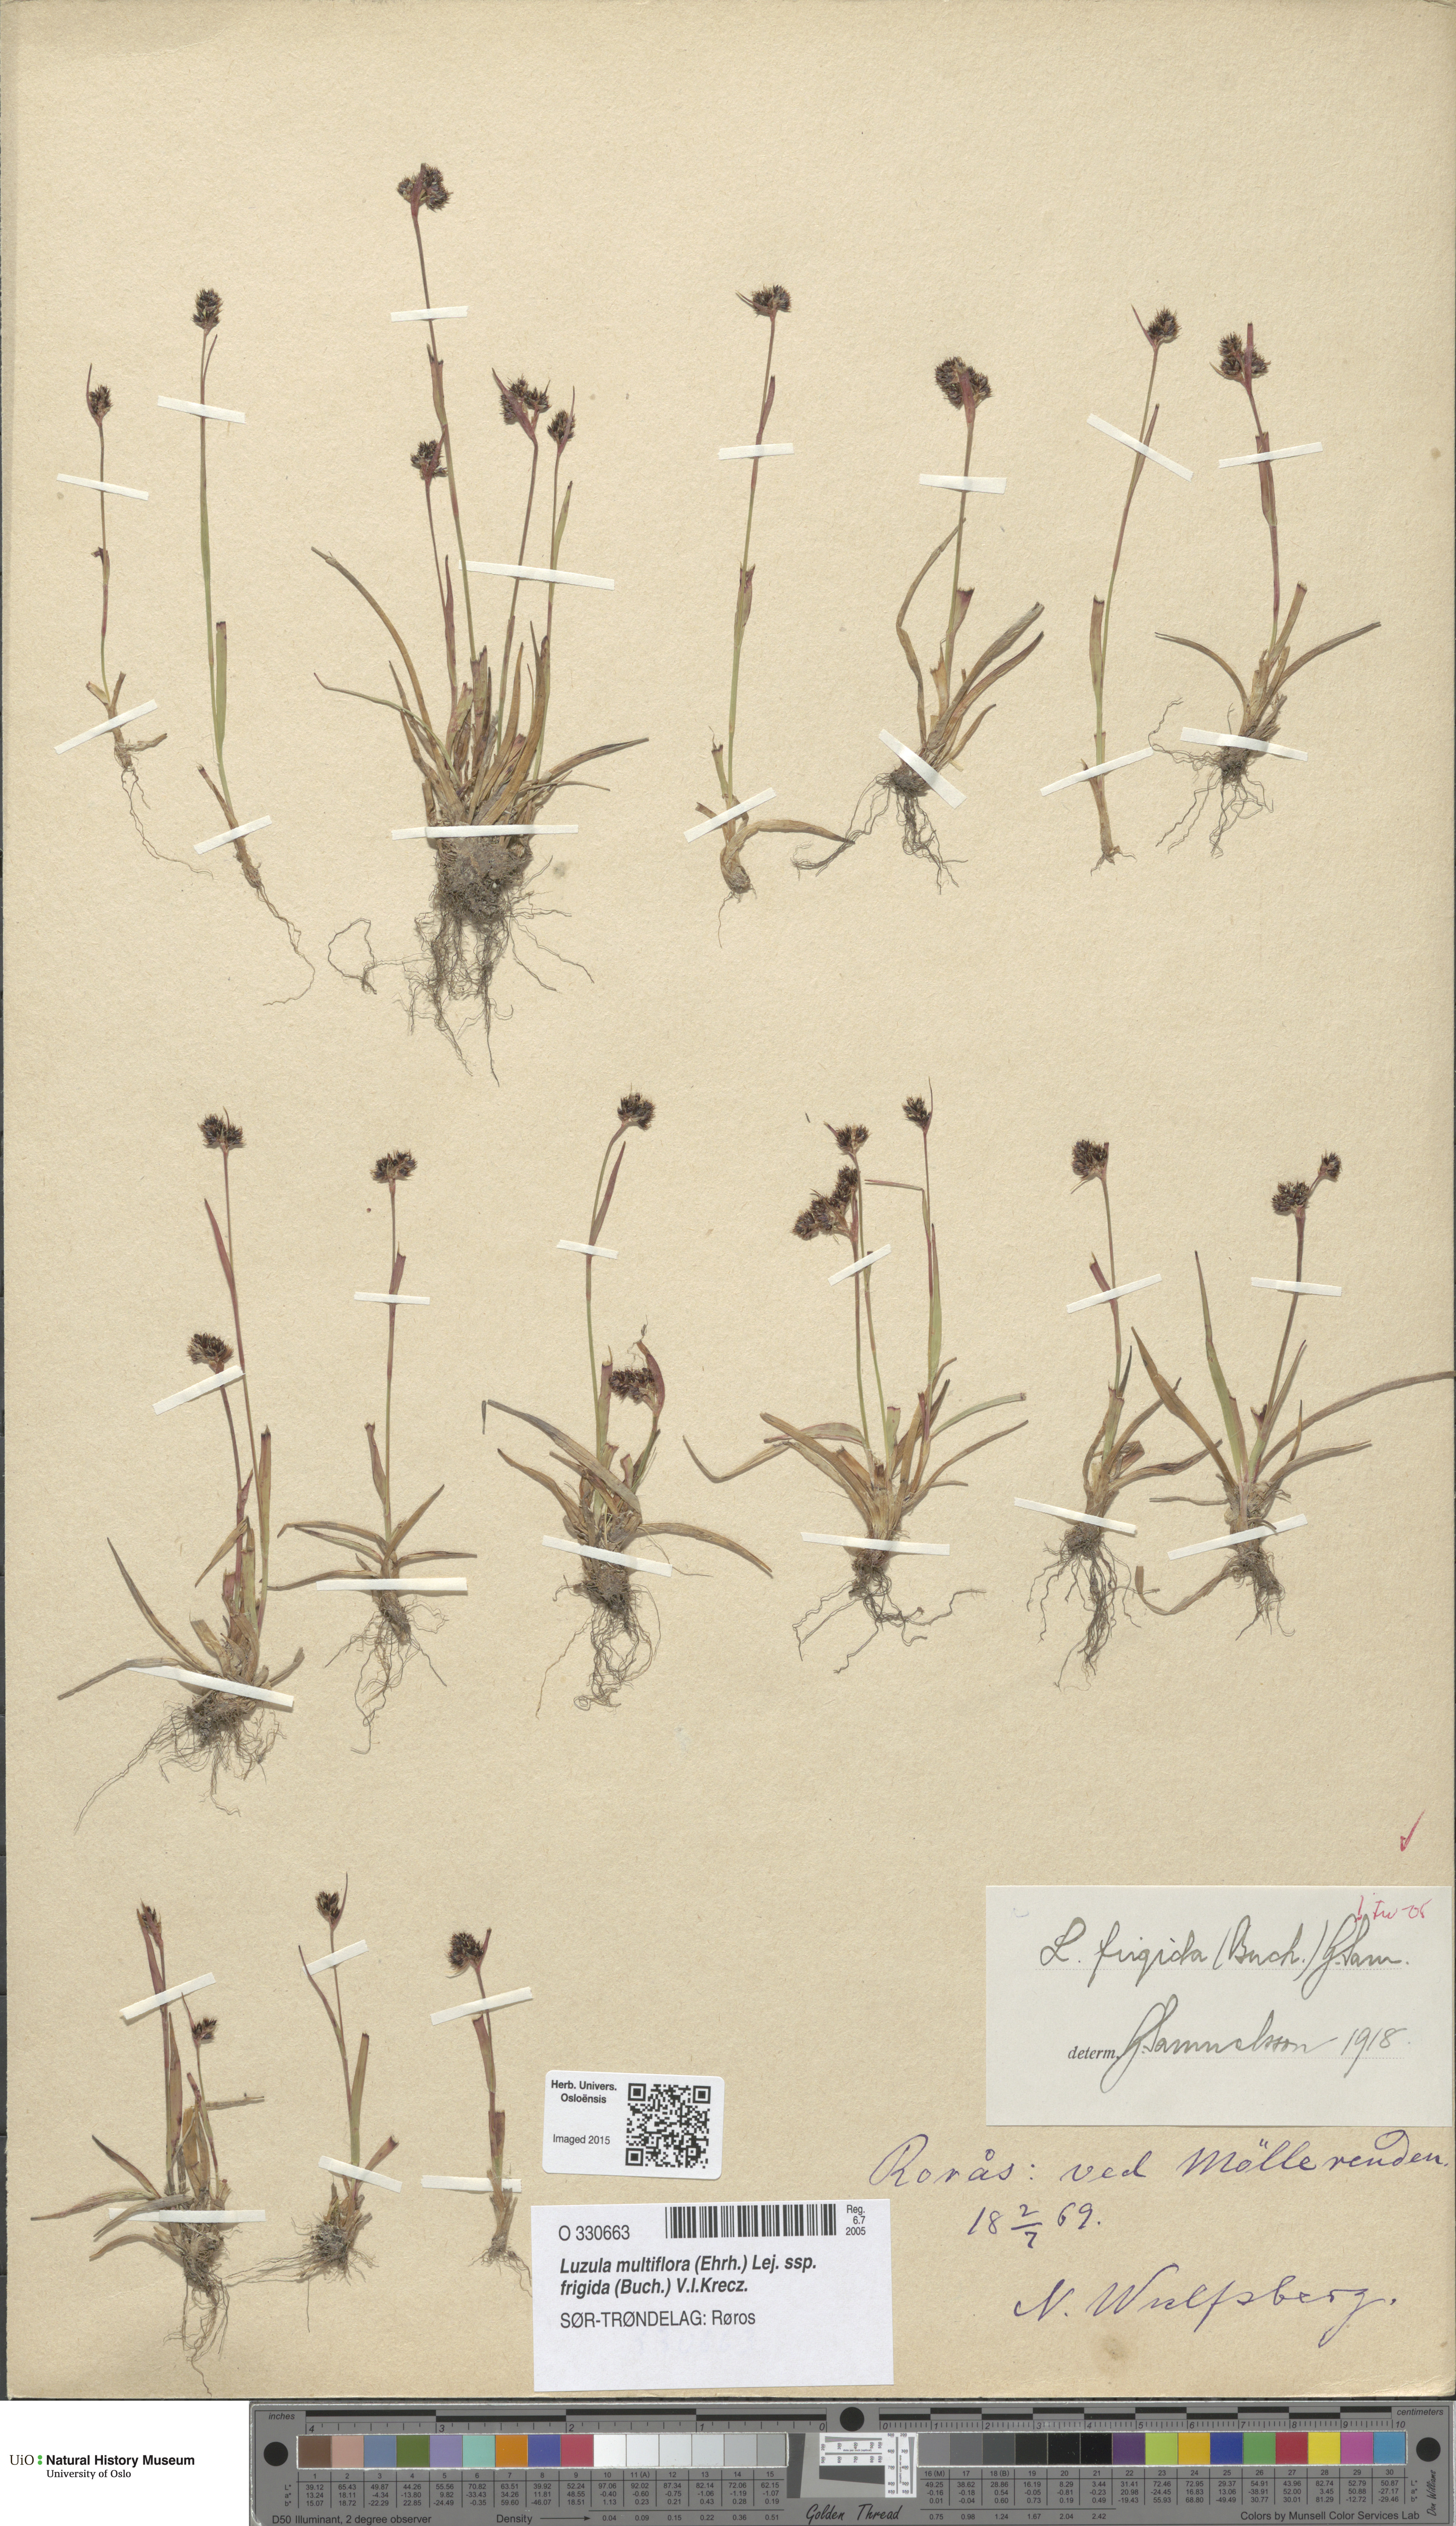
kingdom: Plantae
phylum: Tracheophyta
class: Liliopsida
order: Poales
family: Juncaceae
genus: Luzula
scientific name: Luzula multiflora
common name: Heath wood-rush
